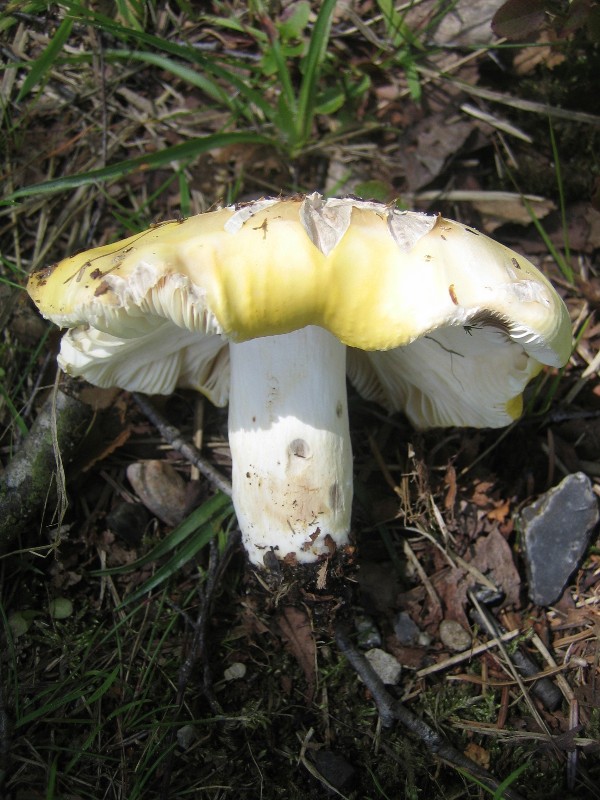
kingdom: Fungi
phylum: Basidiomycota
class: Agaricomycetes
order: Russulales
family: Russulaceae
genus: Russula
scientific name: Russula claroflava
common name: birke-skørhat
